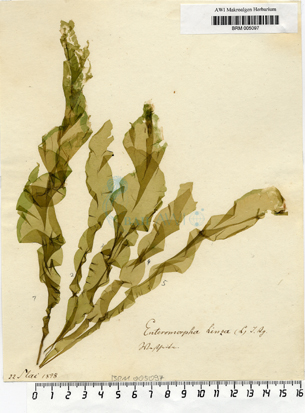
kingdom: Plantae
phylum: Chlorophyta
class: Ulvophyceae
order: Ulvales
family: Ulvaceae
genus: Ulva
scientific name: Ulva linza
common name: Green string lettuce
